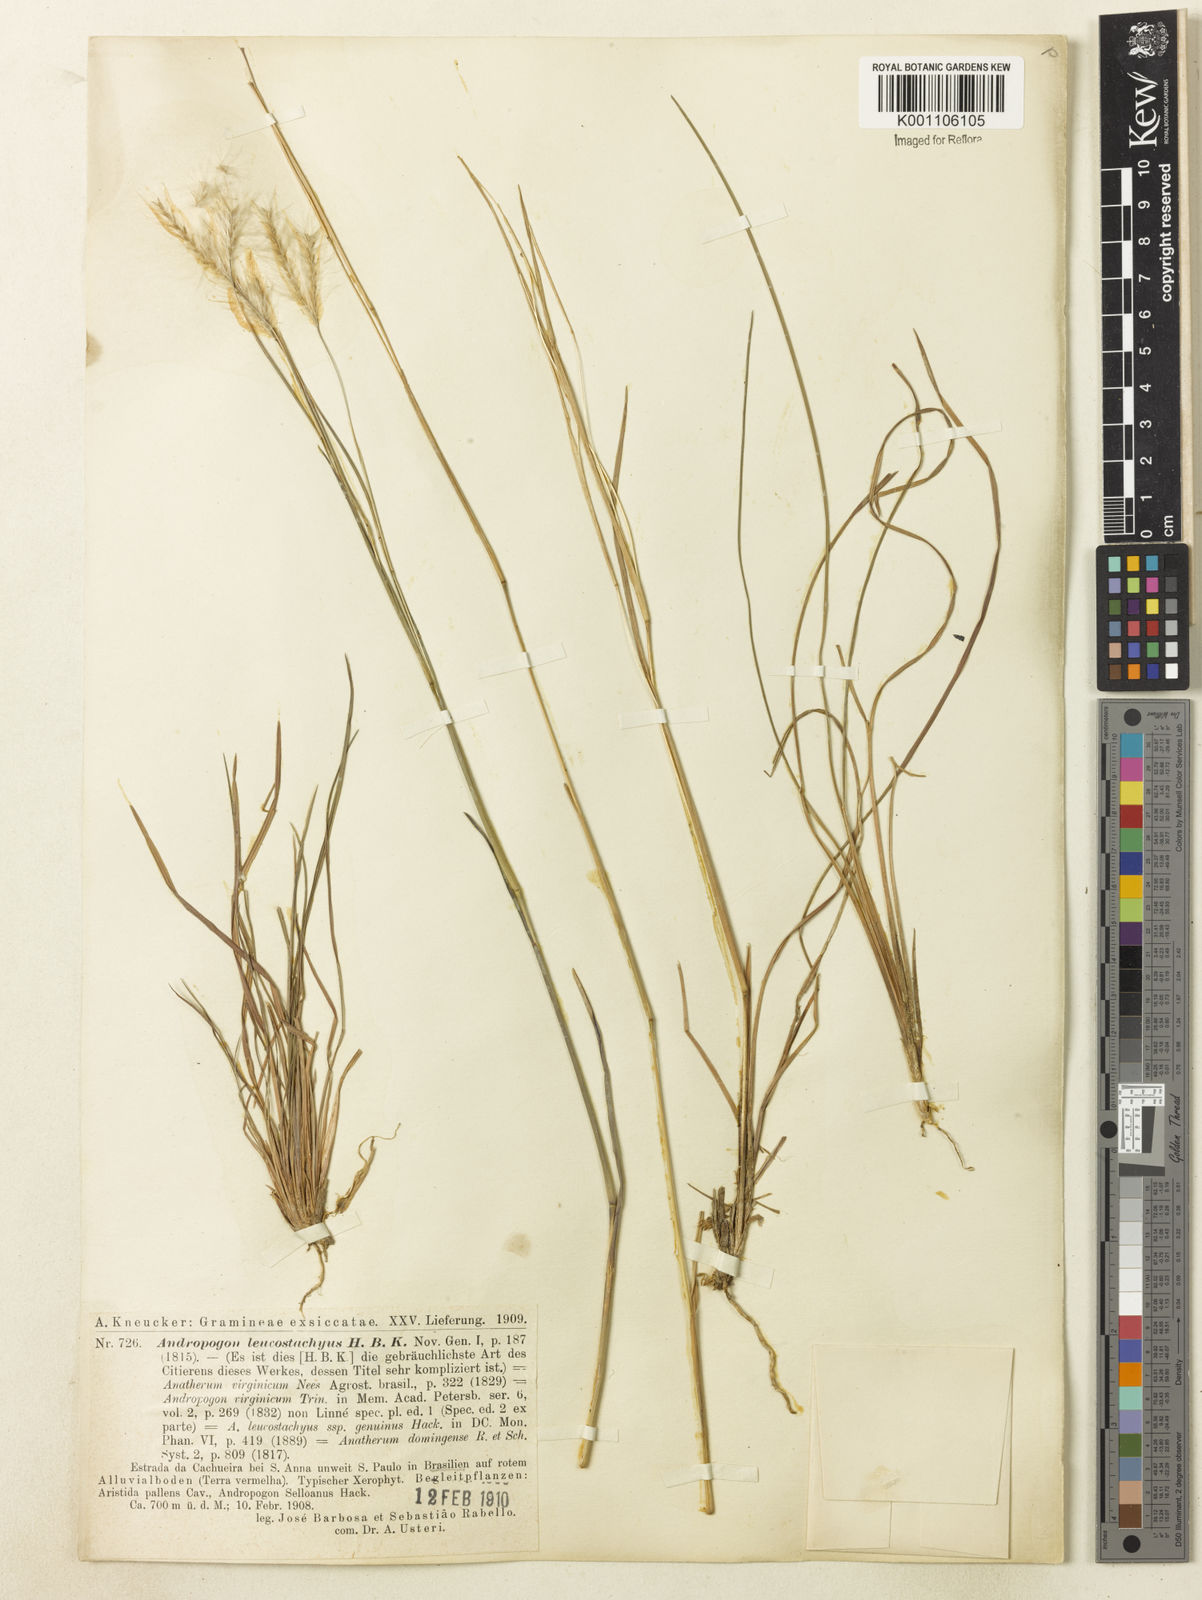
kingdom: Plantae
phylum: Tracheophyta
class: Liliopsida
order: Poales
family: Poaceae
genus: Andropogon
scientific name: Andropogon leucostachyus
